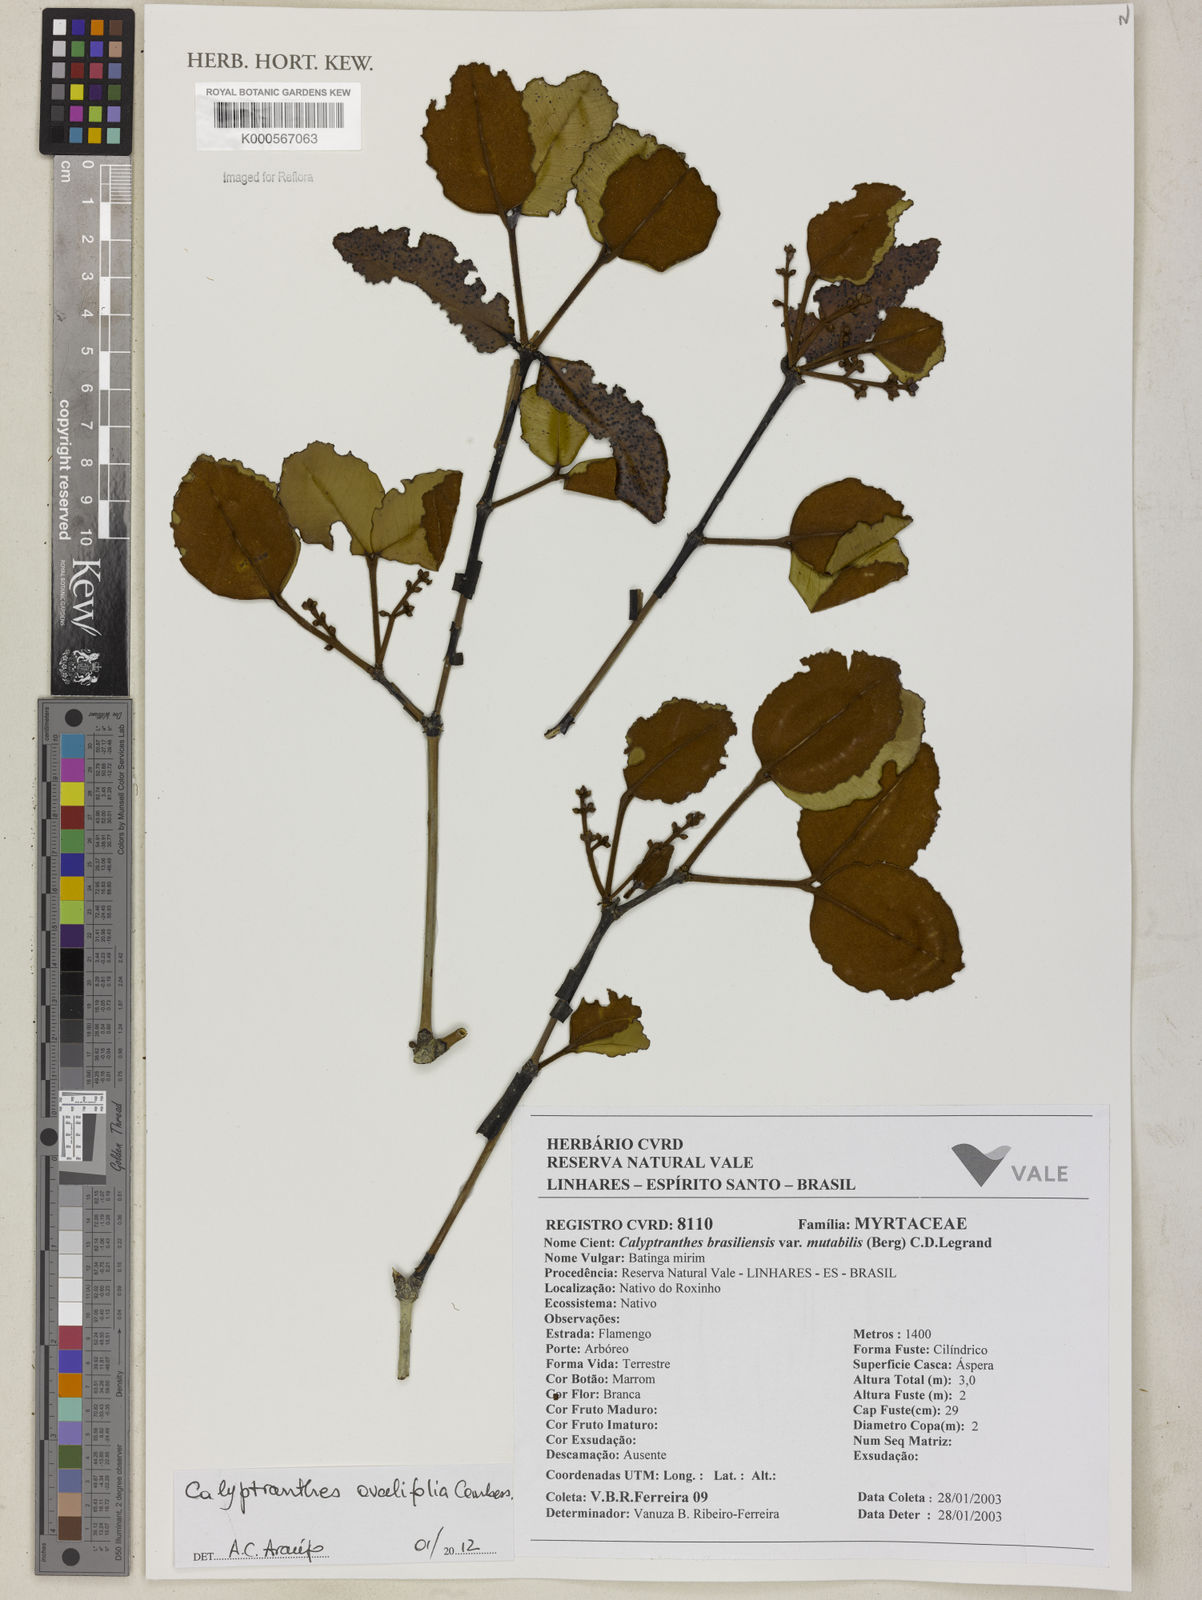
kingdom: Plantae
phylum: Tracheophyta
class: Magnoliopsida
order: Myrtales
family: Myrtaceae
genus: Myrcia
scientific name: Myrcia neobrasiliensis
